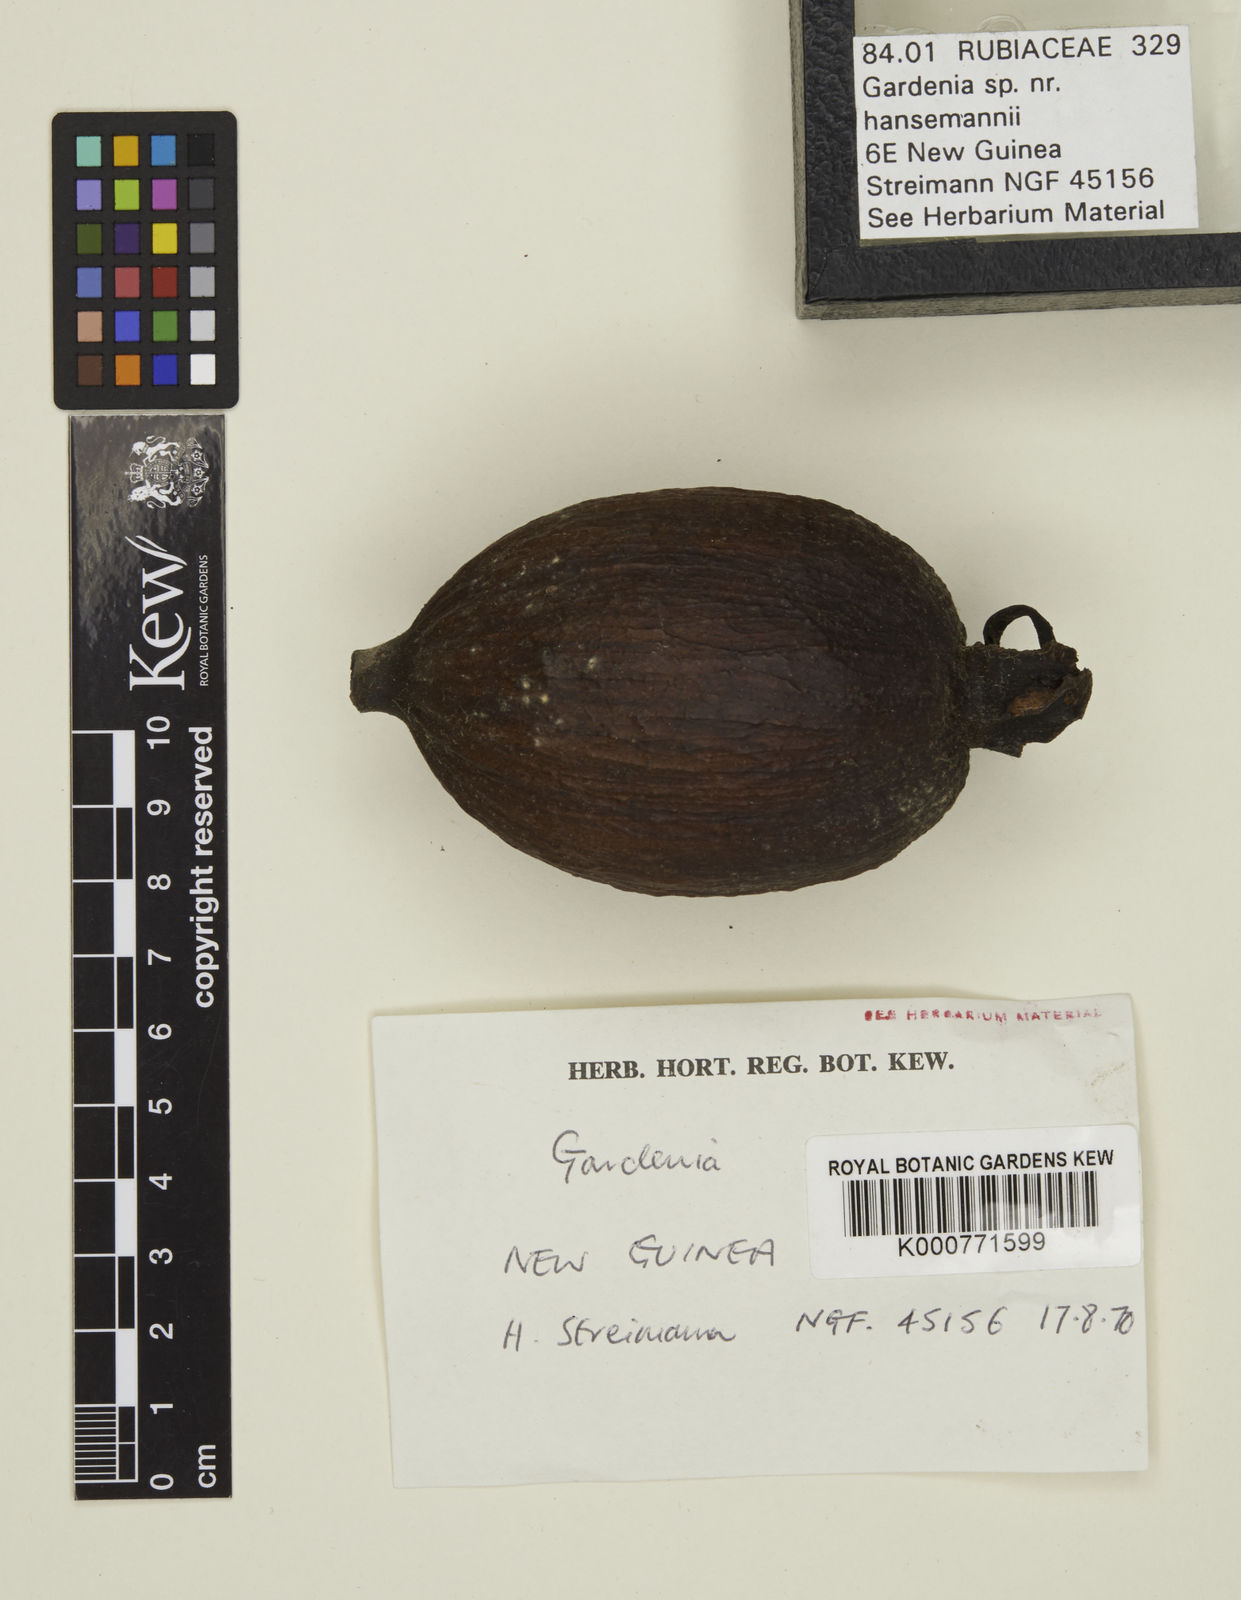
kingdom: Plantae
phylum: Tracheophyta
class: Magnoliopsida
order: Gentianales
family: Rubiaceae
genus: Gardenia
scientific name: Gardenia hansemannii
